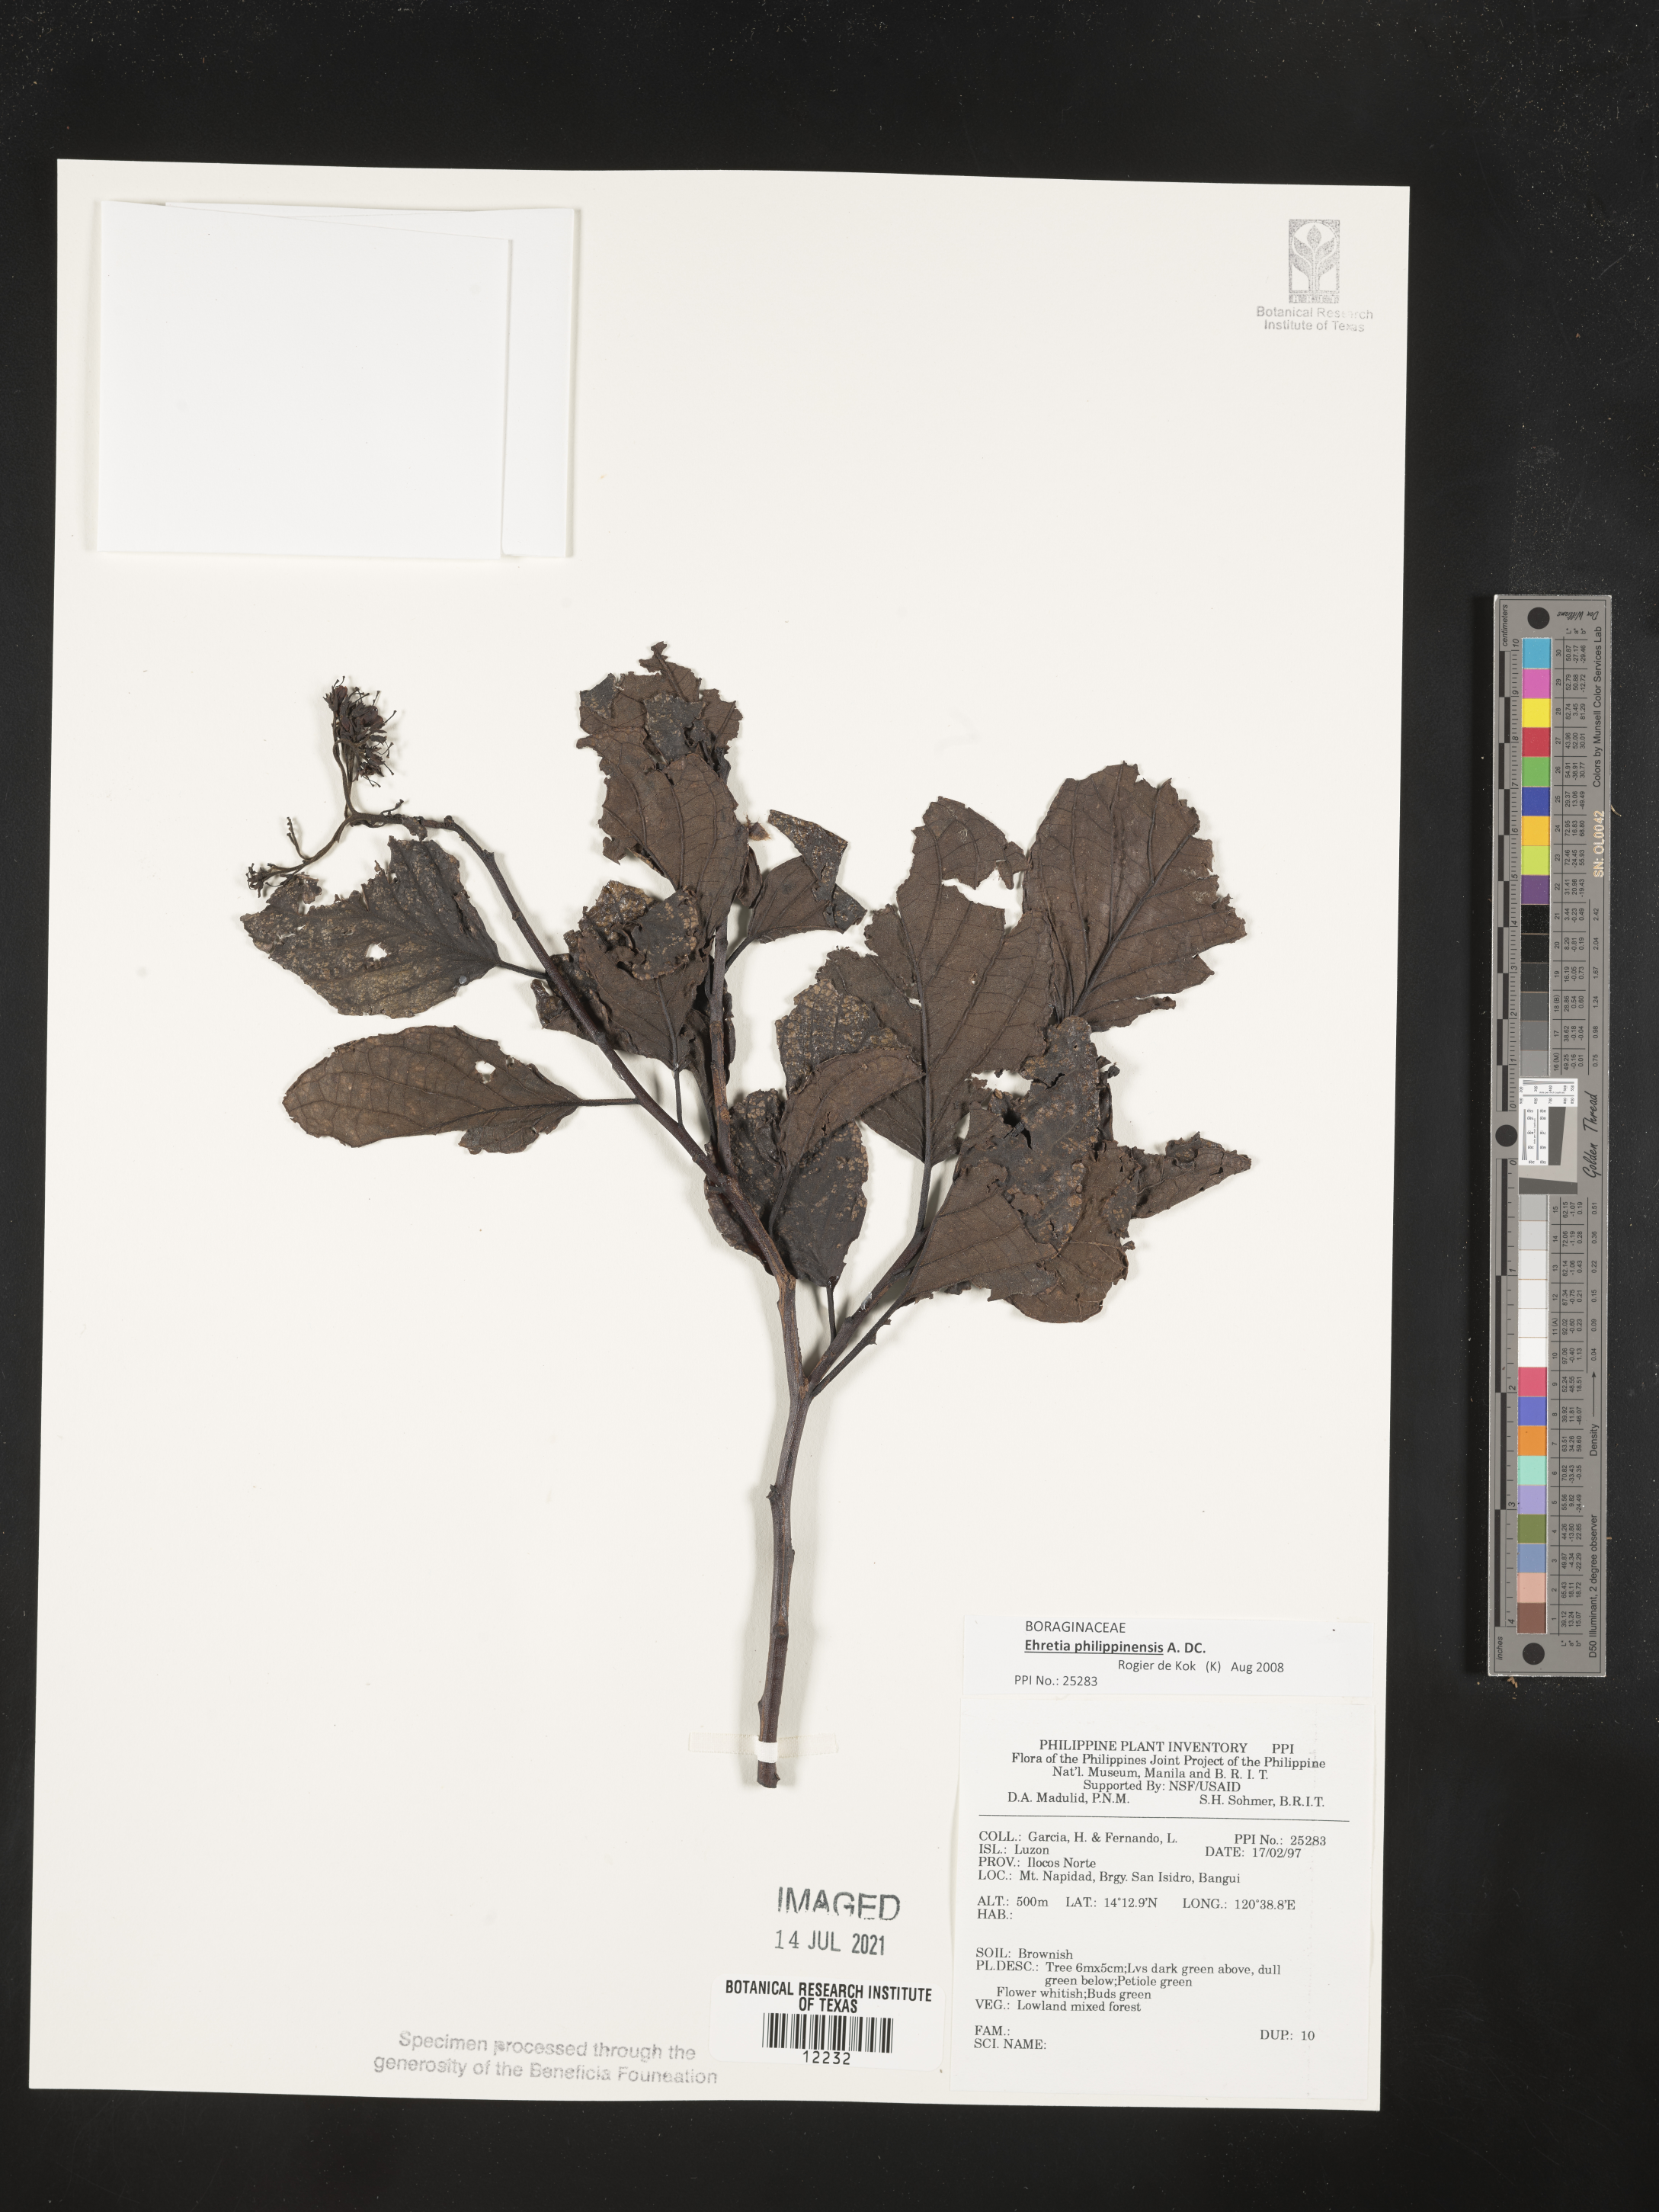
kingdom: Plantae
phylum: Tracheophyta
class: Magnoliopsida
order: Boraginales
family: Ehretiaceae
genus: Ehretia
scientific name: Ehretia philippinensis
